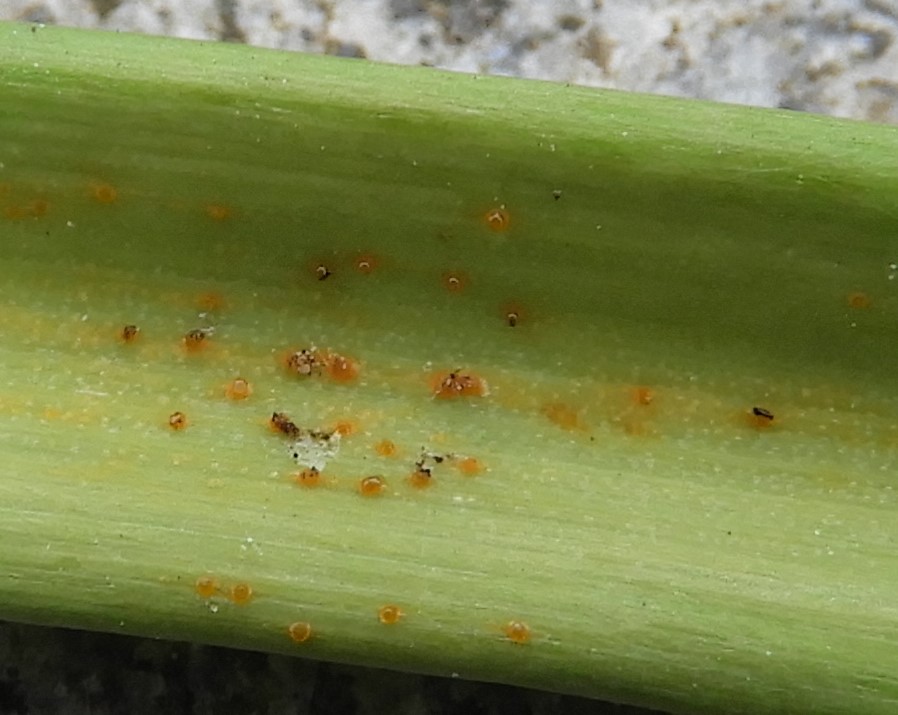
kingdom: Fungi
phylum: Basidiomycota
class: Pucciniomycetes
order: Pucciniales
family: Melampsoraceae
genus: Melampsora
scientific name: Melampsora galanthi-fragilis
